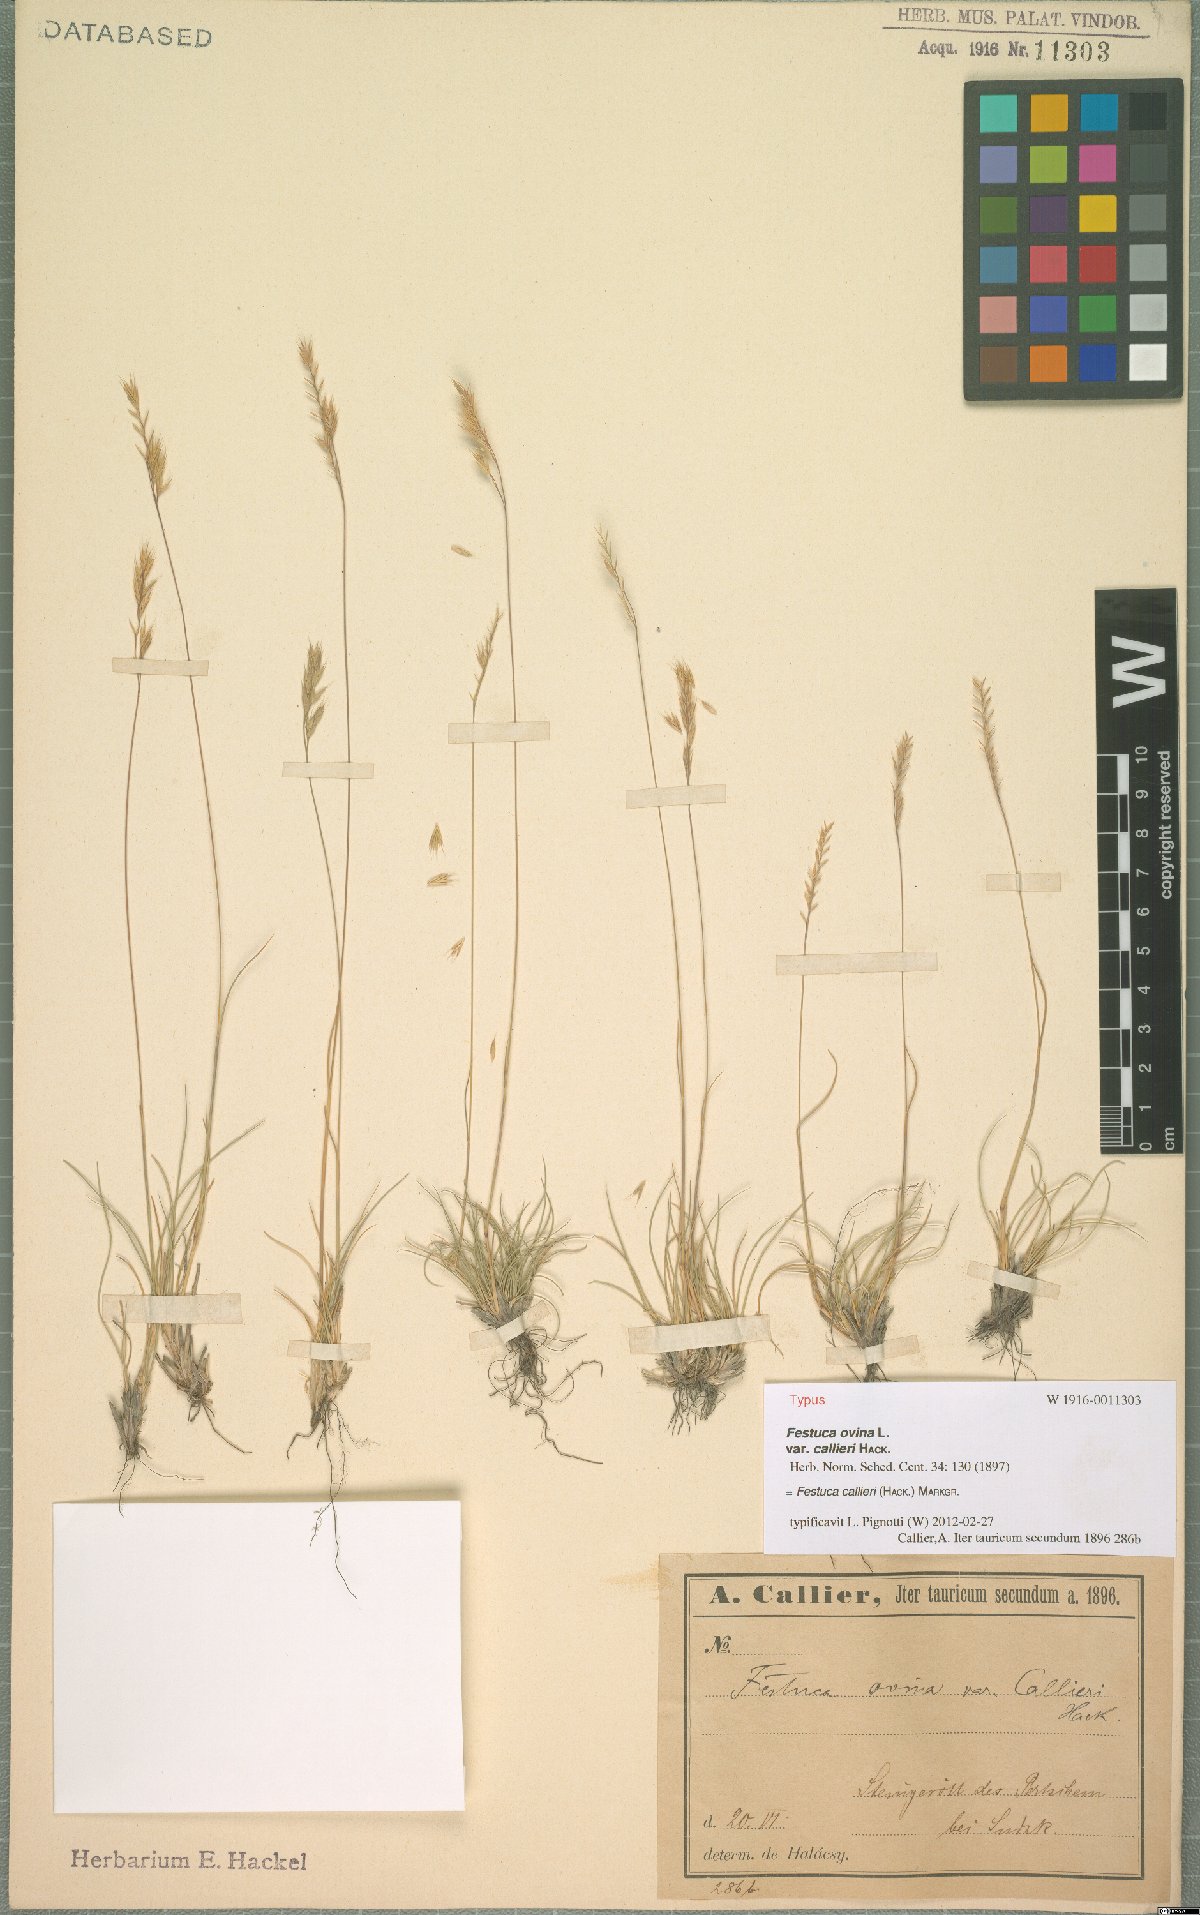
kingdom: Plantae
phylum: Tracheophyta
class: Liliopsida
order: Poales
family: Poaceae
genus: Festuca
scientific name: Festuca callieri
